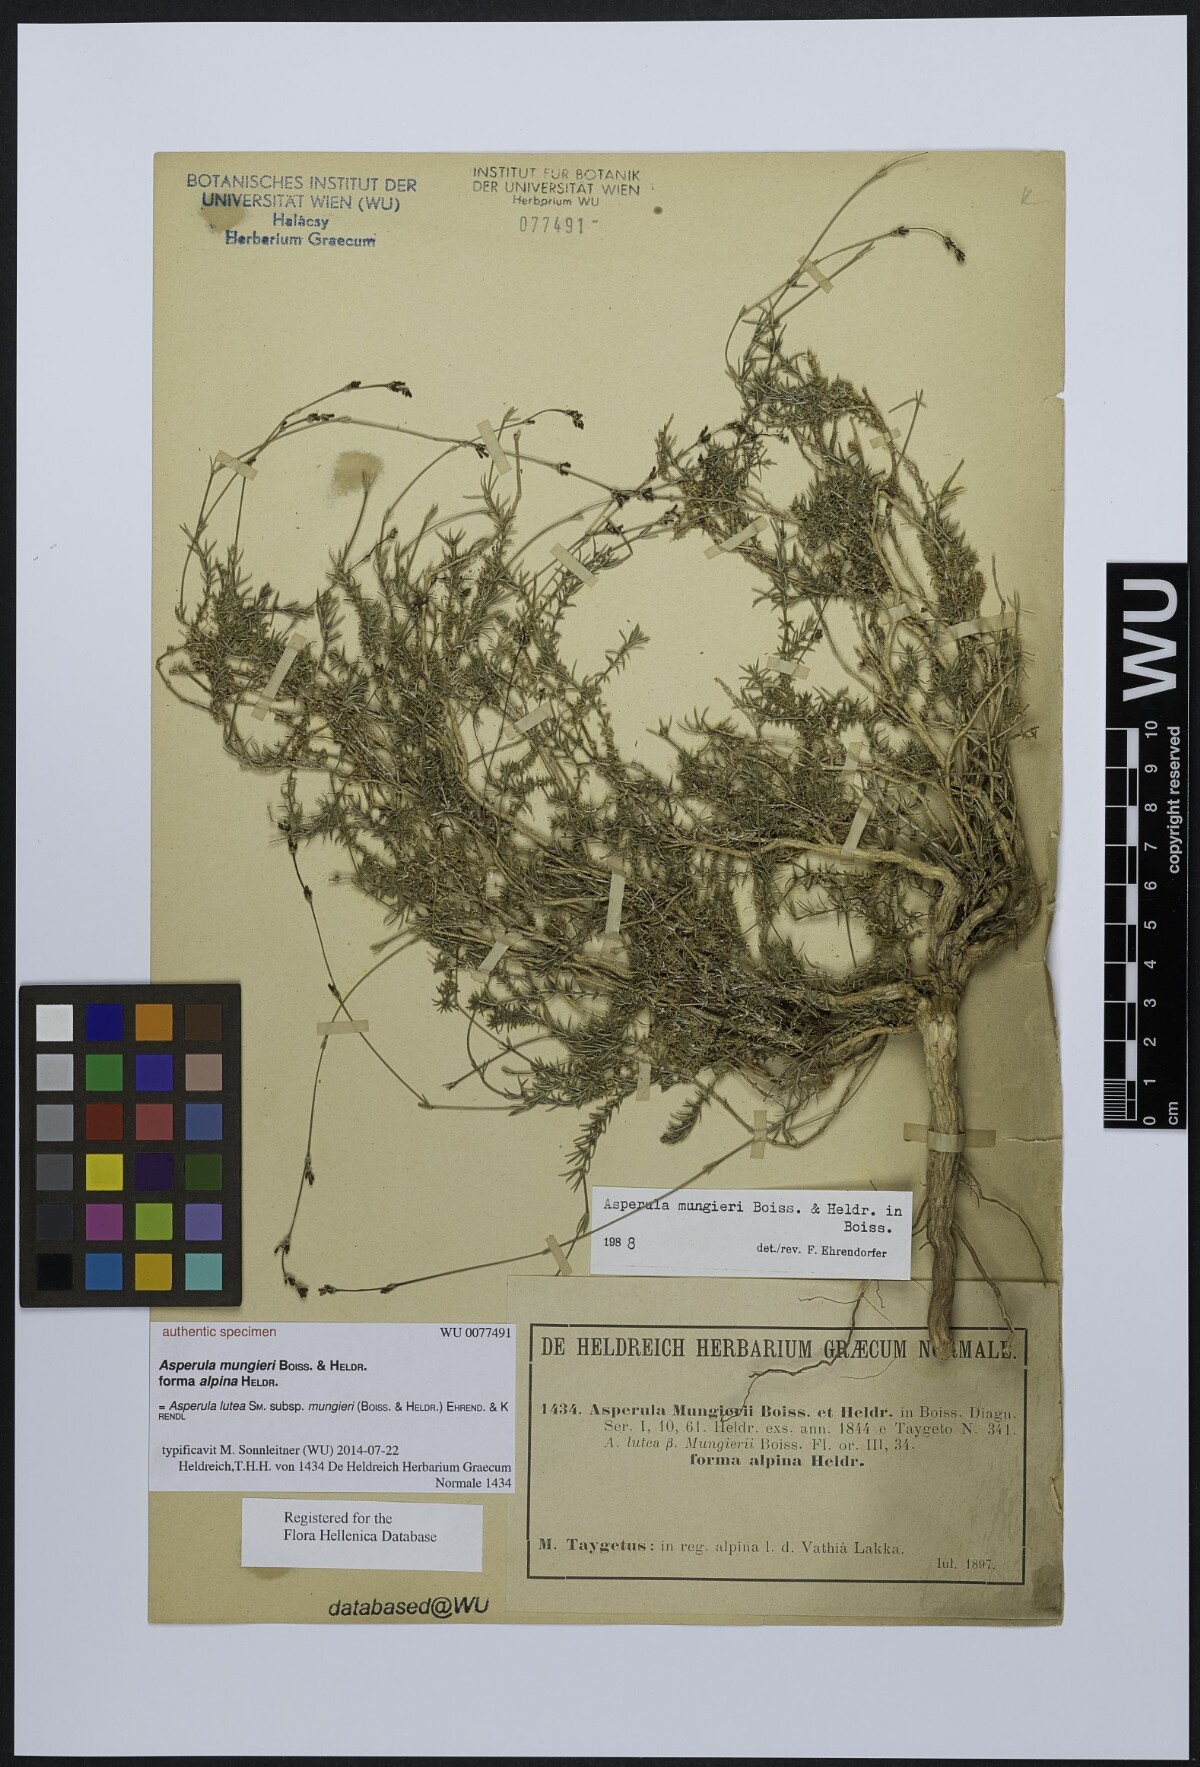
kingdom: Plantae
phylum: Tracheophyta
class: Magnoliopsida
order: Gentianales
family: Rubiaceae
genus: Cynanchica
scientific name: Cynanchica mungieri
